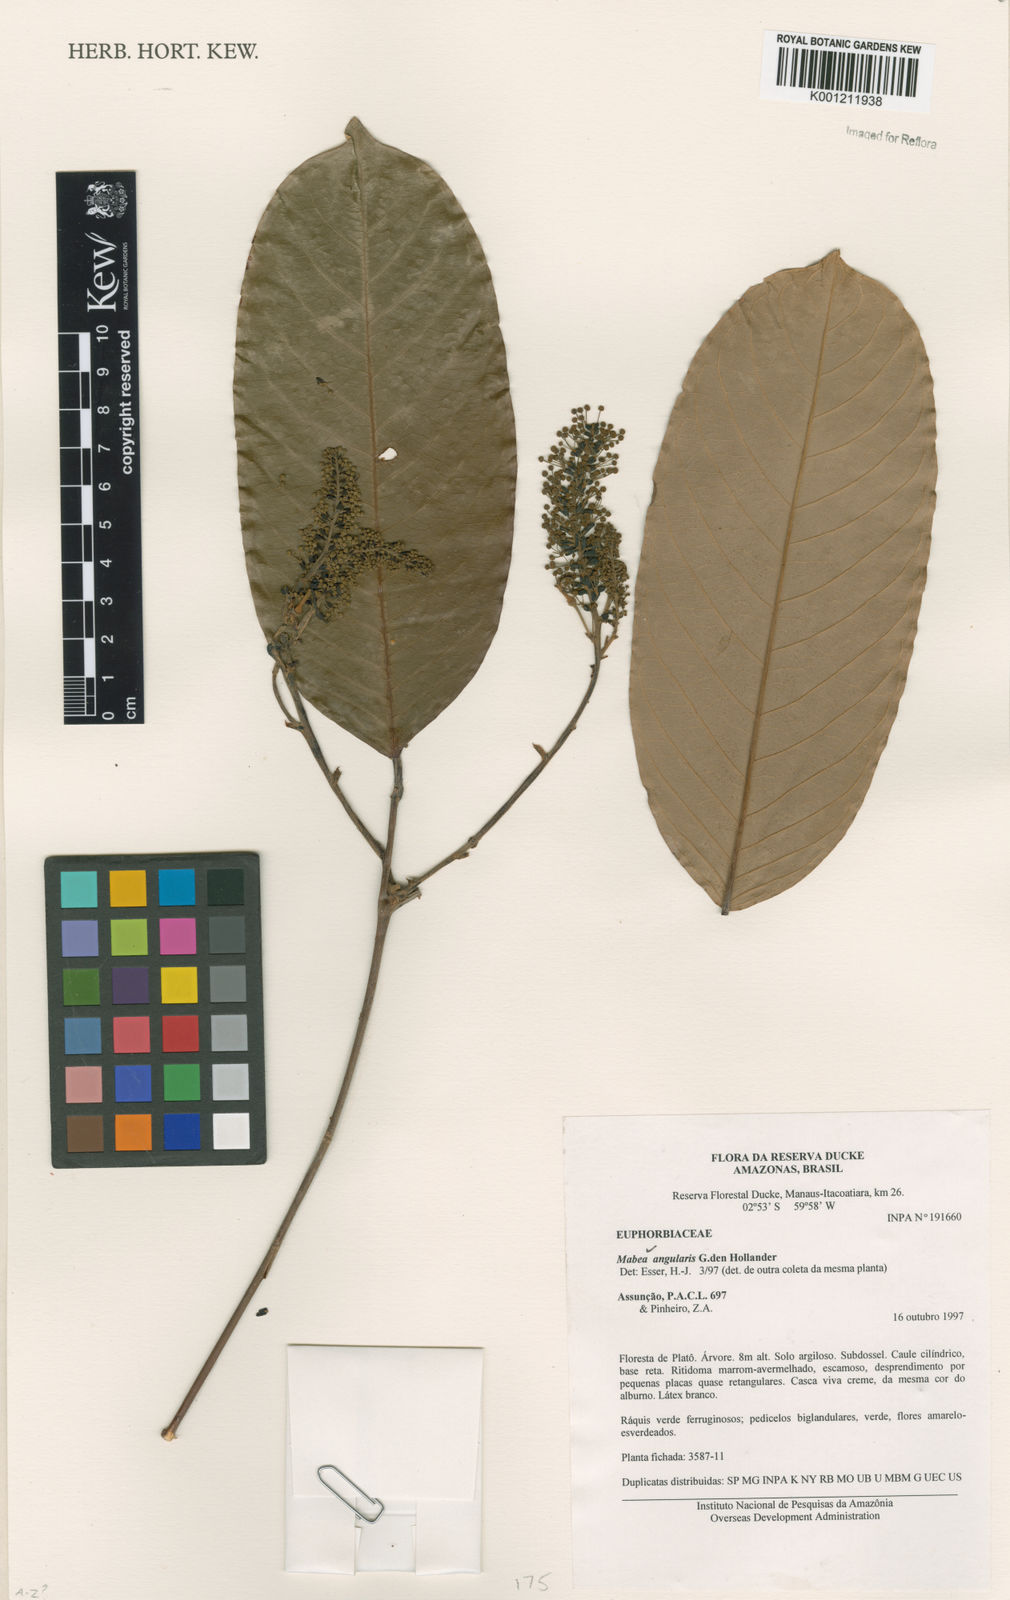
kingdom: Plantae
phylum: Tracheophyta
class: Magnoliopsida
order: Malpighiales
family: Euphorbiaceae
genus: Mabea
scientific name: Mabea angularis
